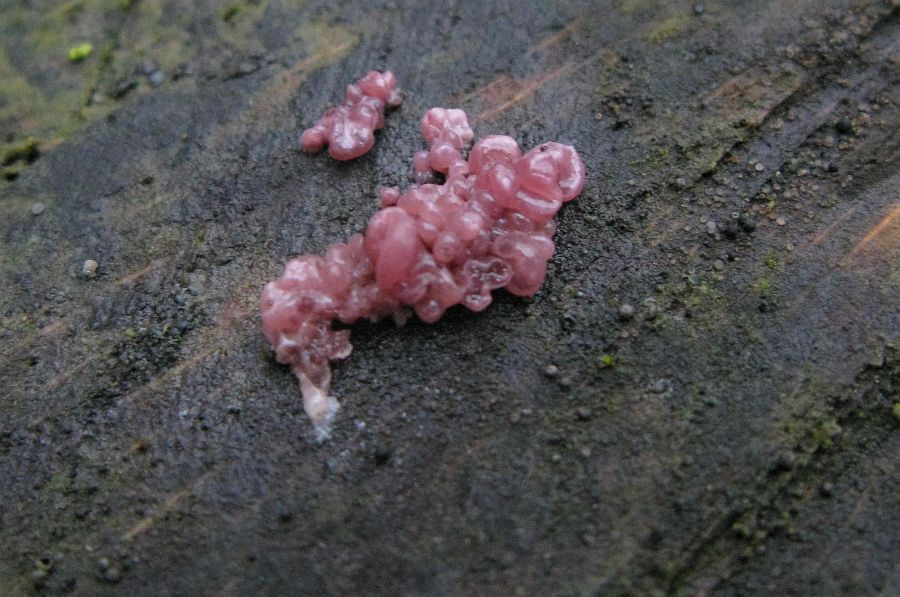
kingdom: Fungi
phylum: Ascomycota
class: Leotiomycetes
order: Helotiales
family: Gelatinodiscaceae
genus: Ascocoryne
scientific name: Ascocoryne sarcoides
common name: rødlilla sejskive
